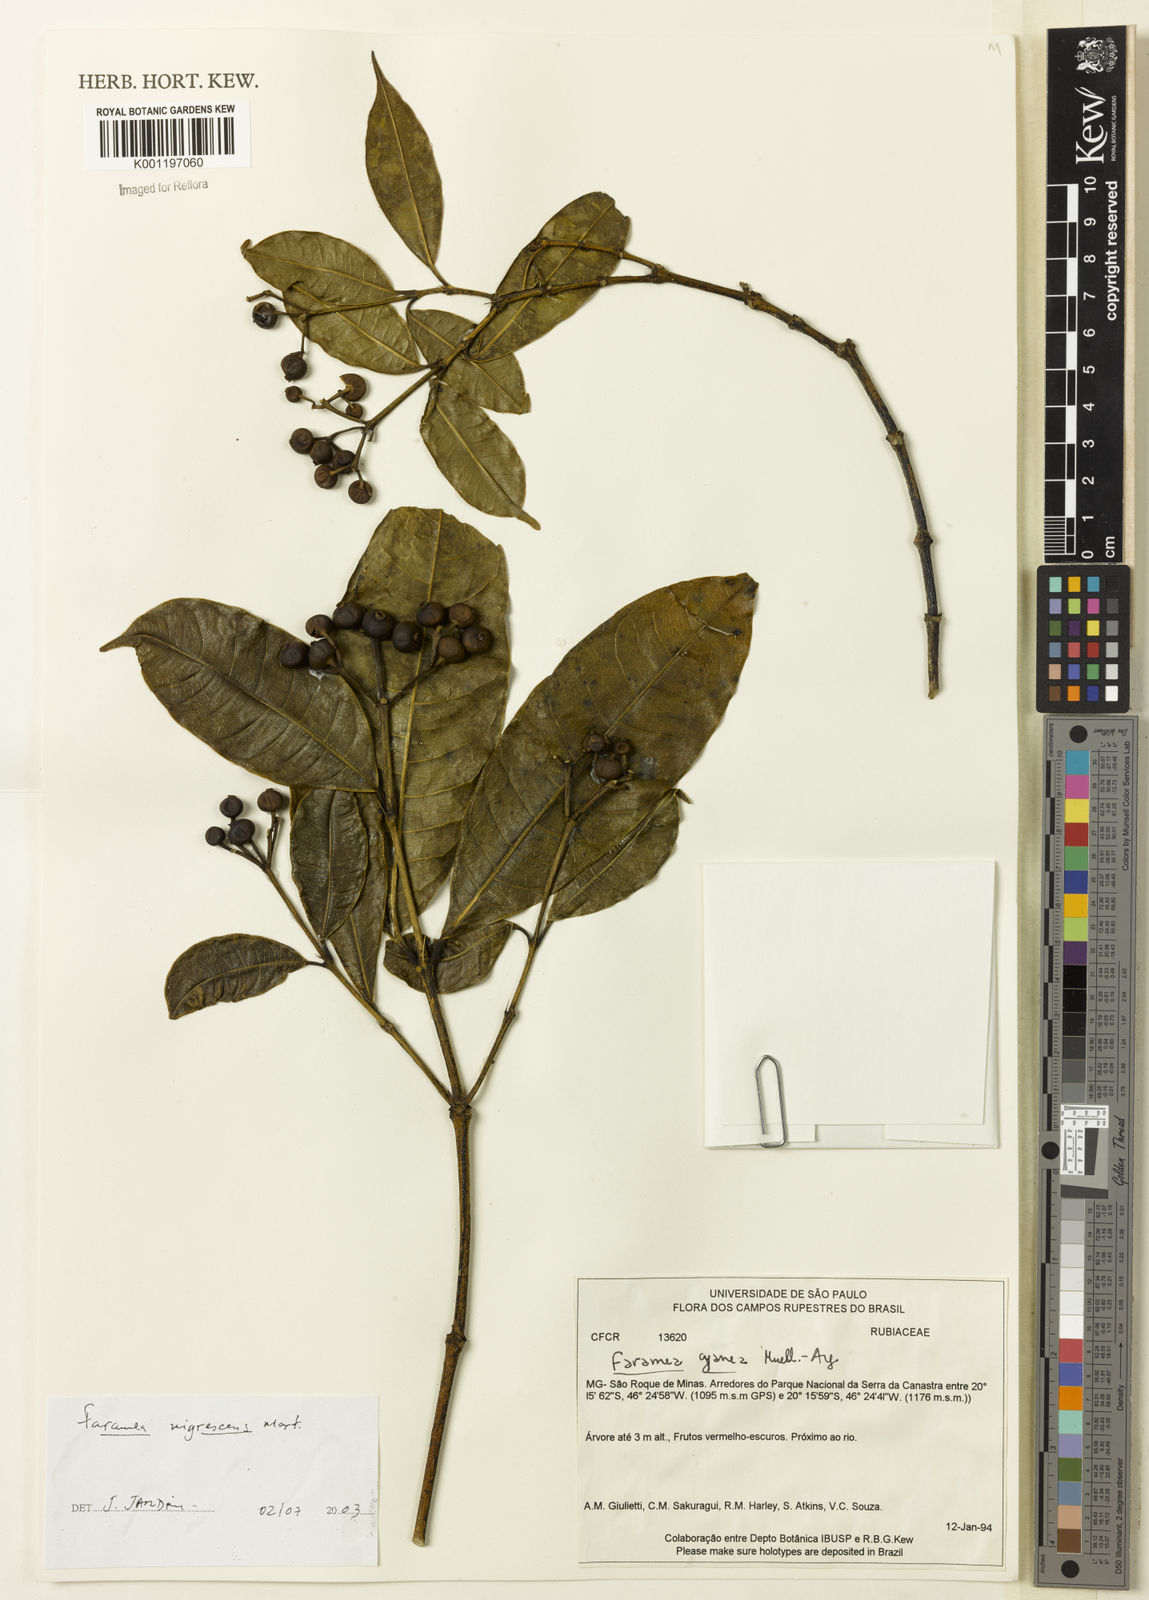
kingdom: Plantae
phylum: Tracheophyta
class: Magnoliopsida
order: Gentianales
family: Rubiaceae
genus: Faramea
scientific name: Faramea nigrescens
